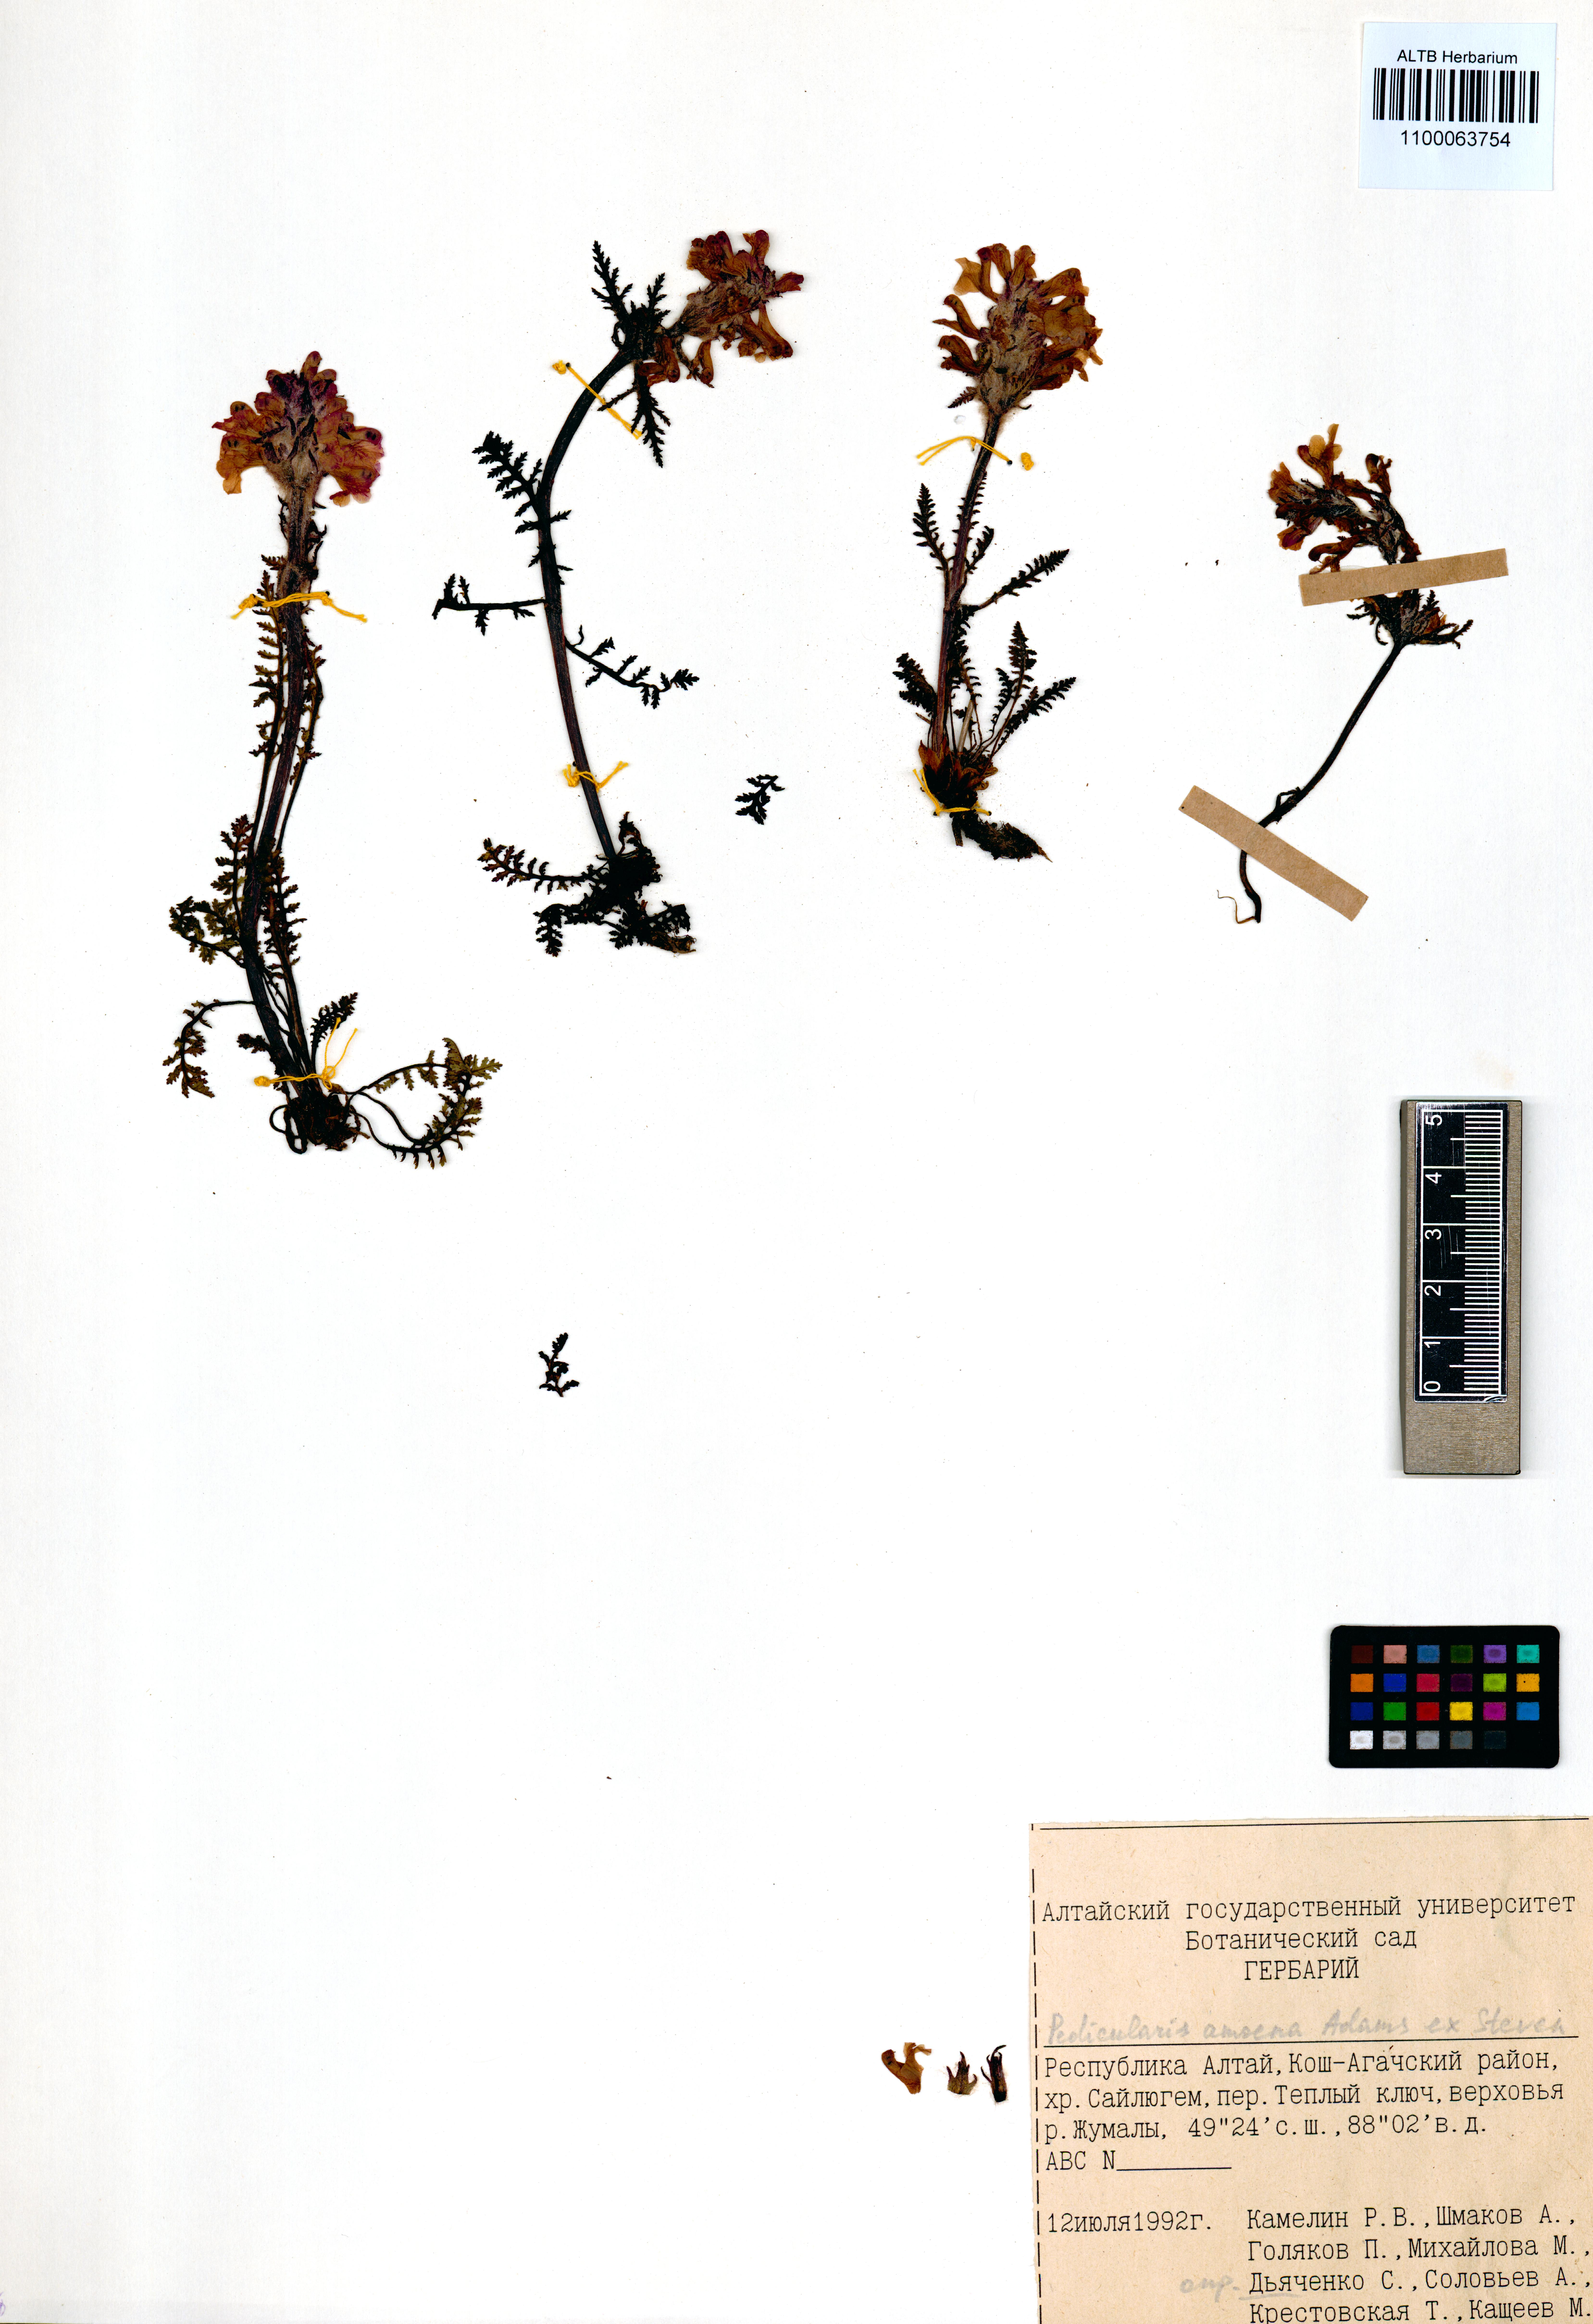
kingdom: Plantae
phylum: Tracheophyta
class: Magnoliopsida
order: Lamiales
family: Orobanchaceae
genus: Pedicularis
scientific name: Pedicularis amoena
